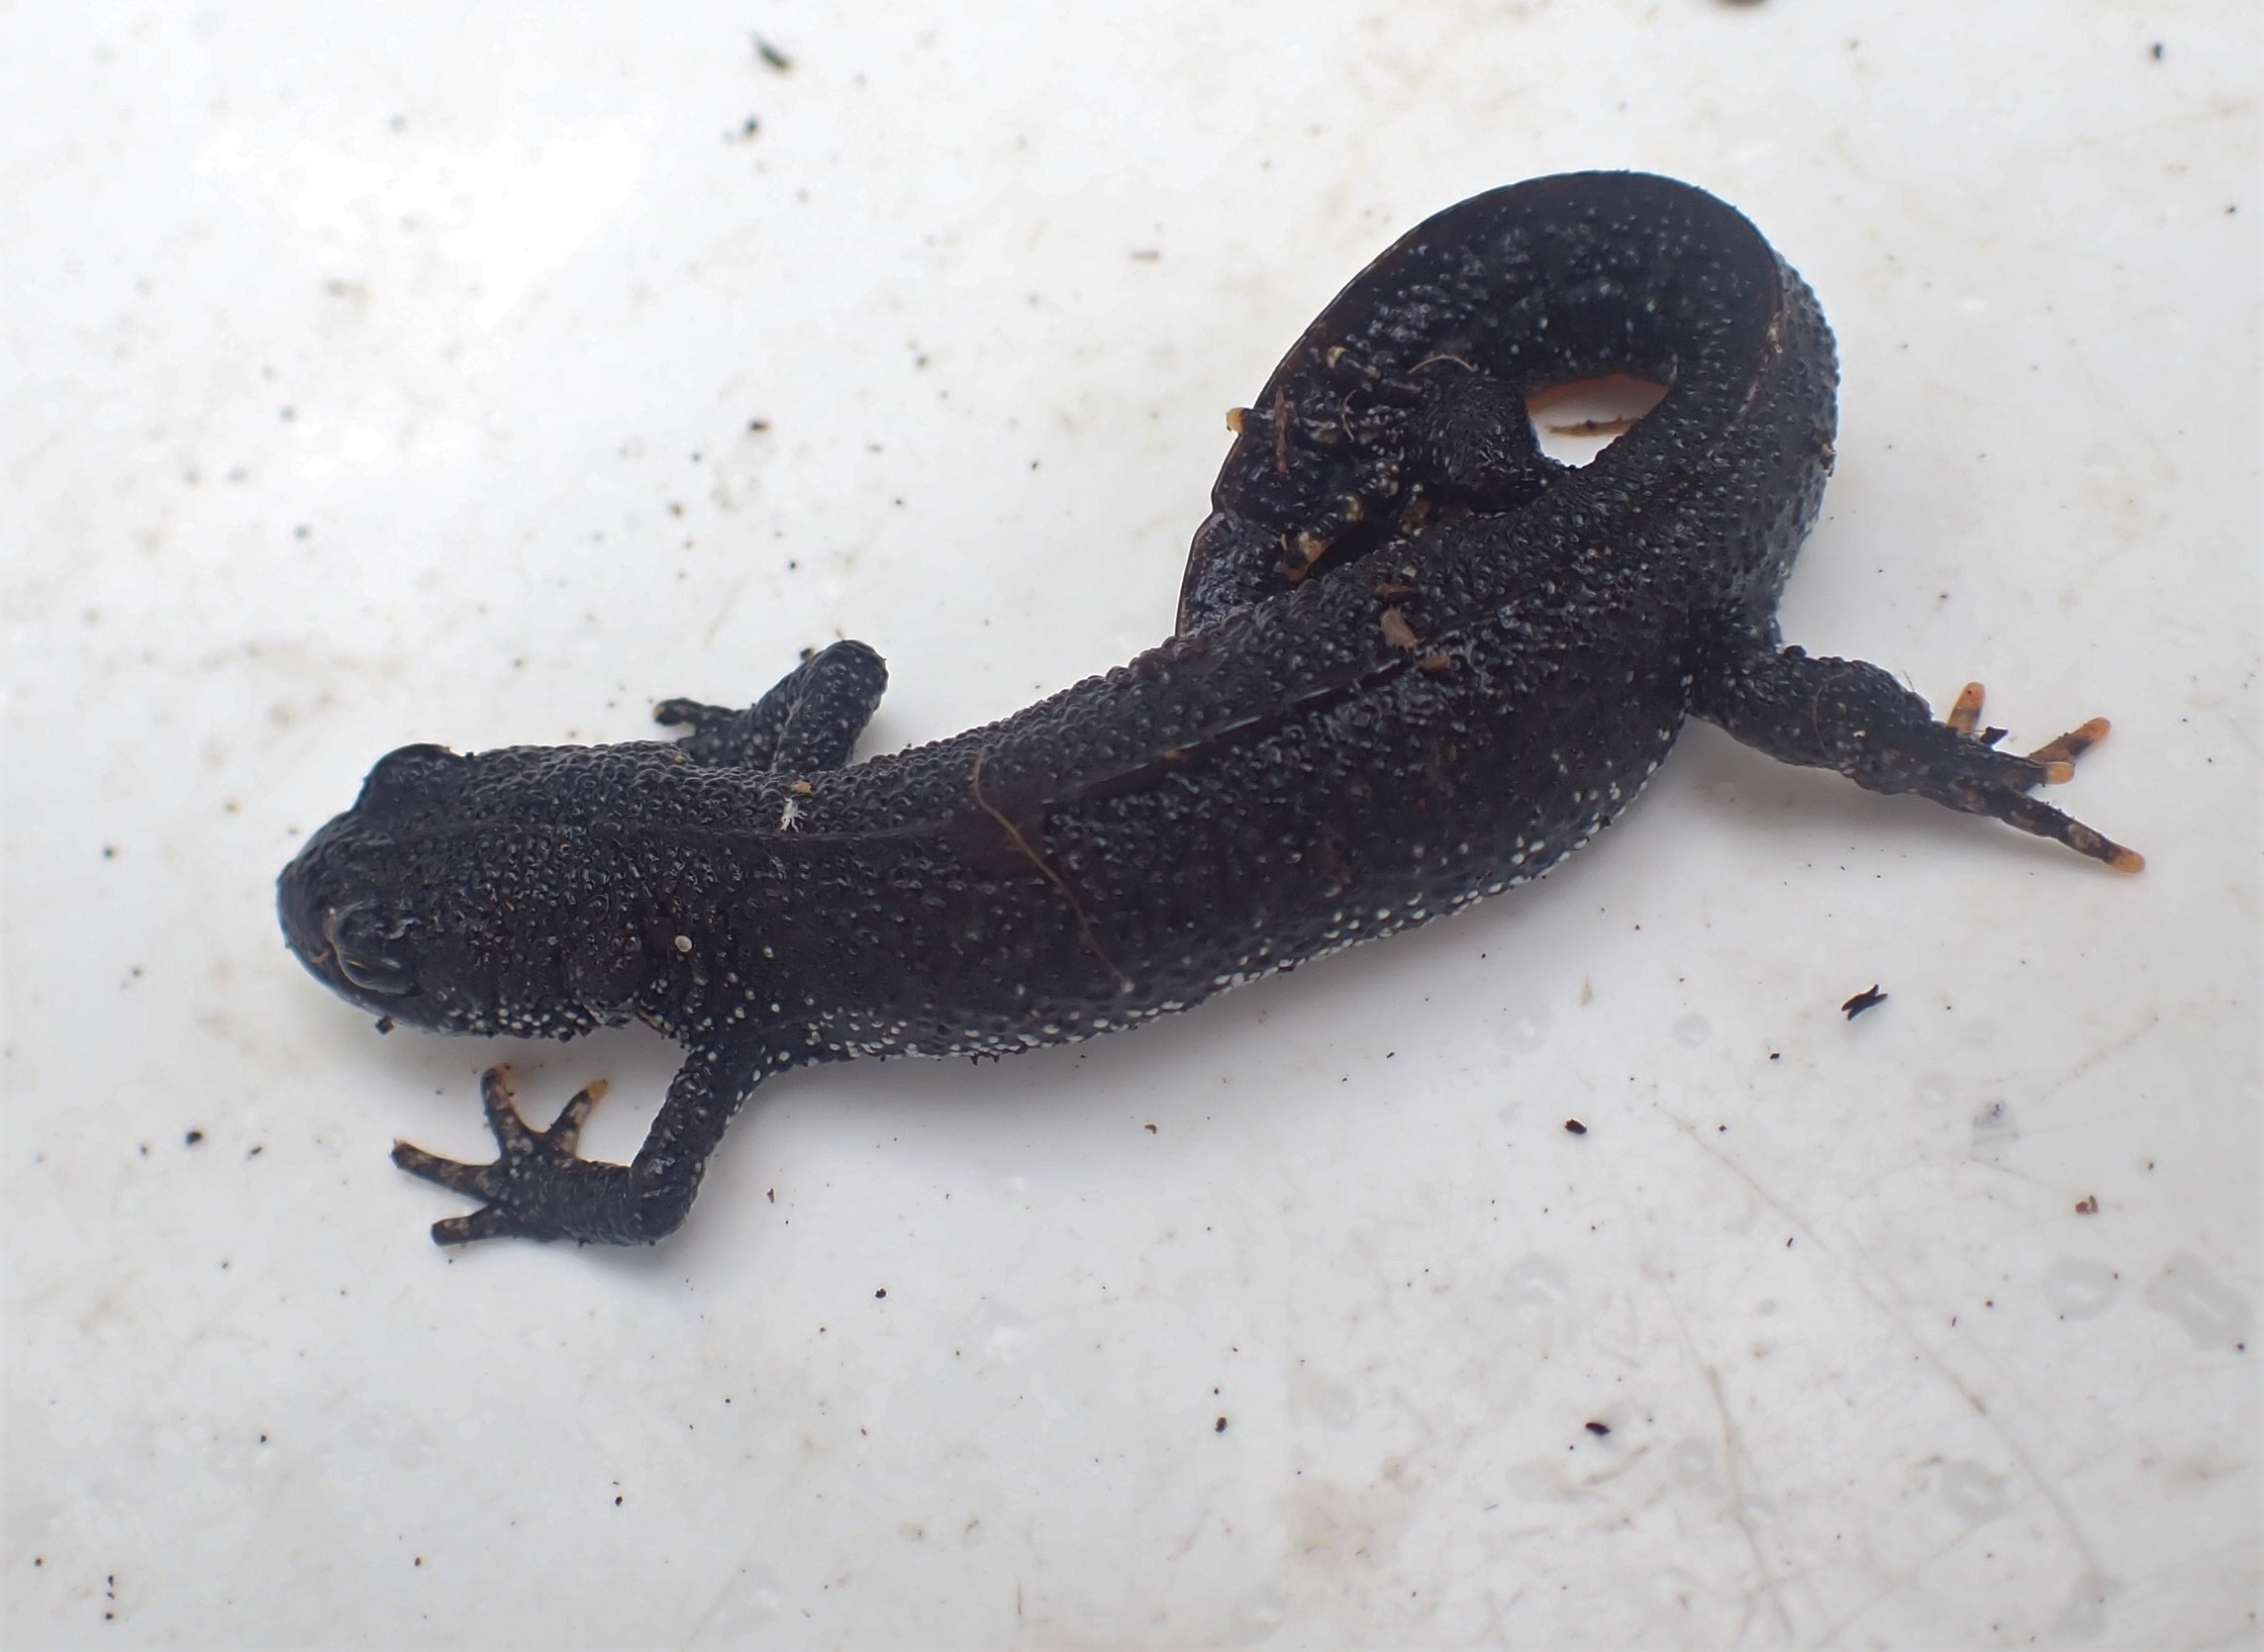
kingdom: Animalia
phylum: Chordata
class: Amphibia
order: Caudata
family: Salamandridae
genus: Triturus
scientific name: Triturus cristatus
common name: Stor vandsalamander
